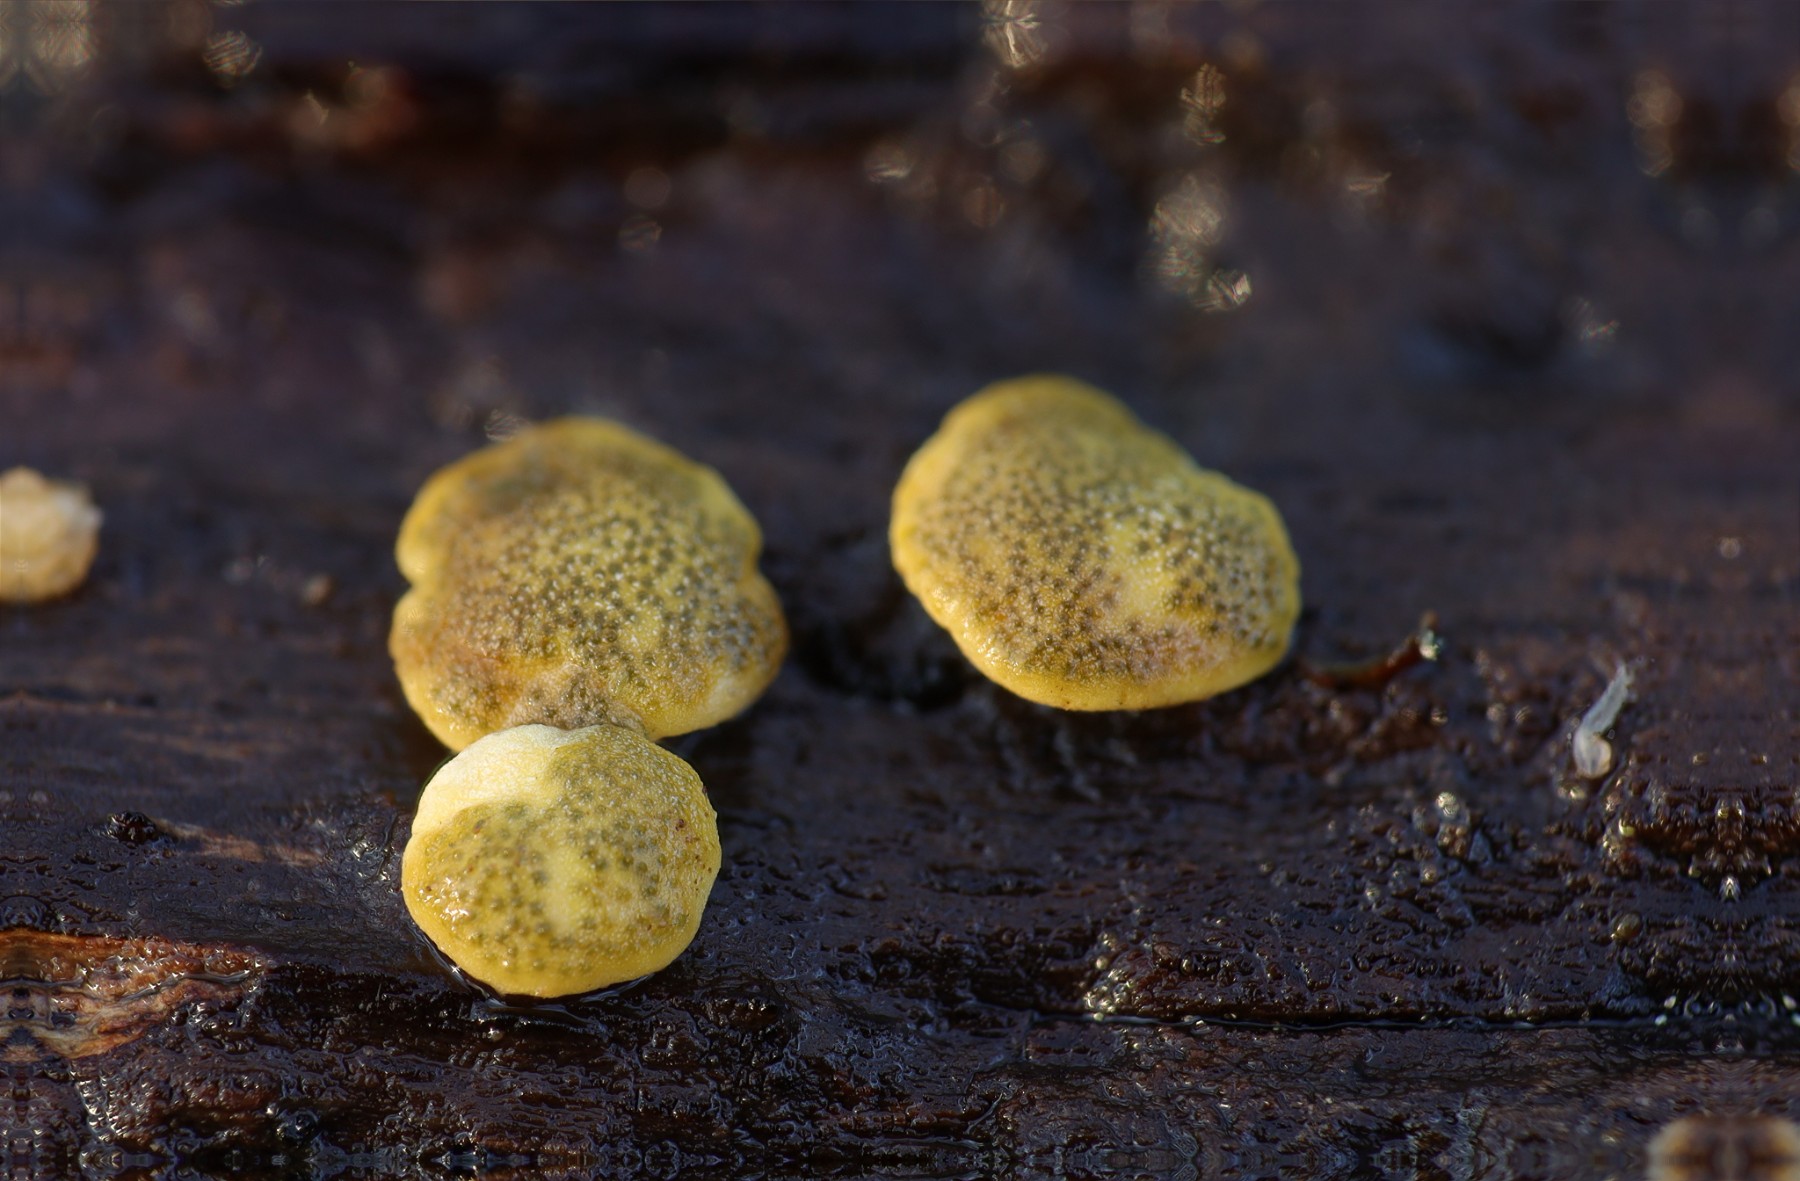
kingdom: Fungi
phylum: Ascomycota
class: Sordariomycetes
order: Hypocreales
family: Hypocreaceae
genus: Trichoderma
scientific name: Trichoderma aureoviride
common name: æggegul kødkerne
